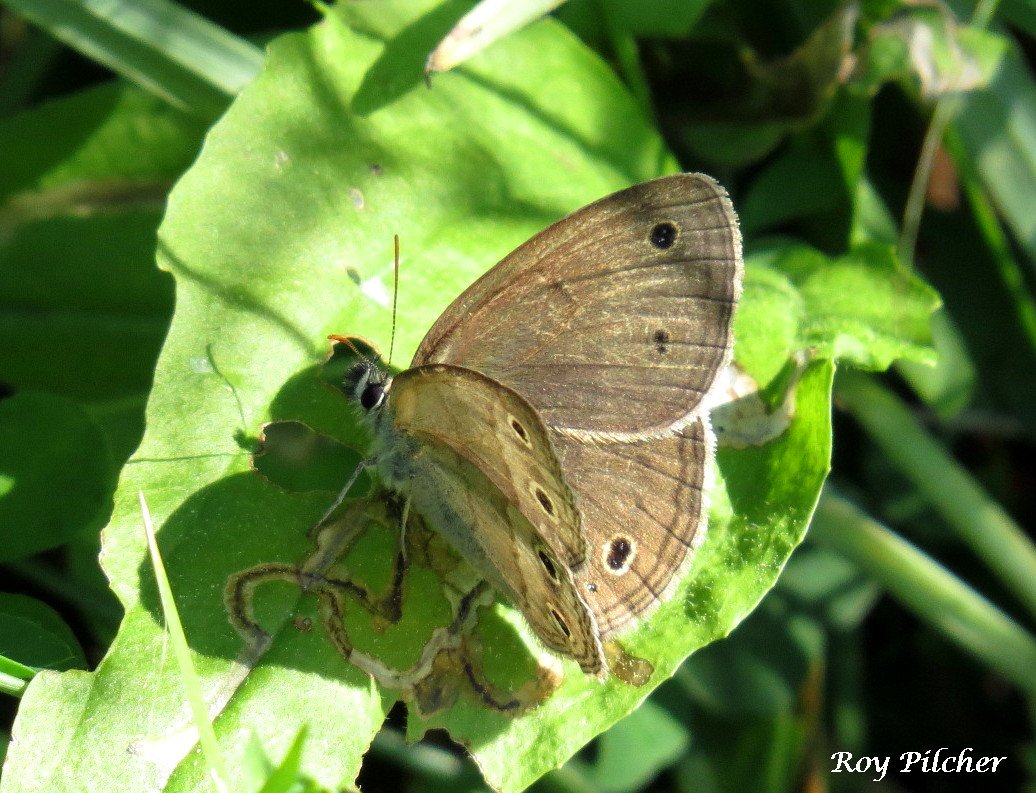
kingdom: Animalia
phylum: Arthropoda
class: Insecta
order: Lepidoptera
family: Nymphalidae
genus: Euptychia
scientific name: Euptychia cymela
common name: Little Wood Satyr
